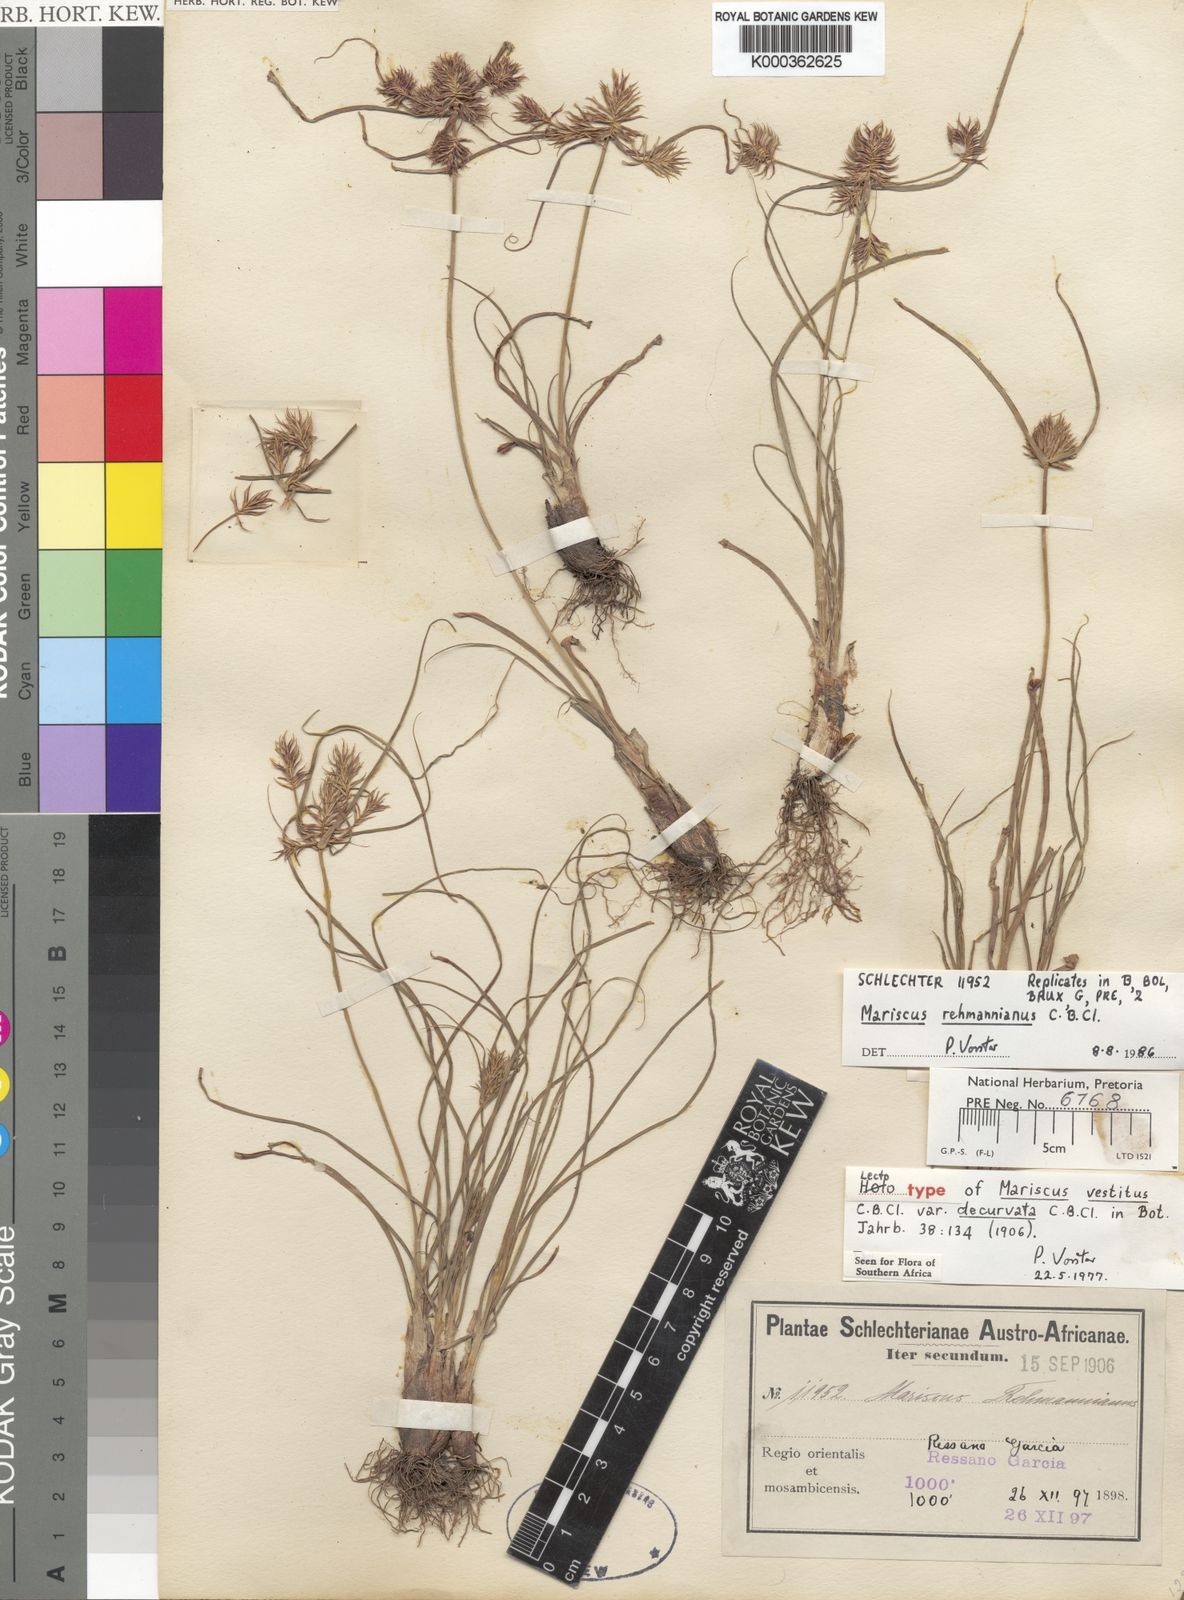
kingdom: Plantae
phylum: Tracheophyta
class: Liliopsida
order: Poales
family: Cyperaceae
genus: Cyperus
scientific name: Cyperus indecorus
